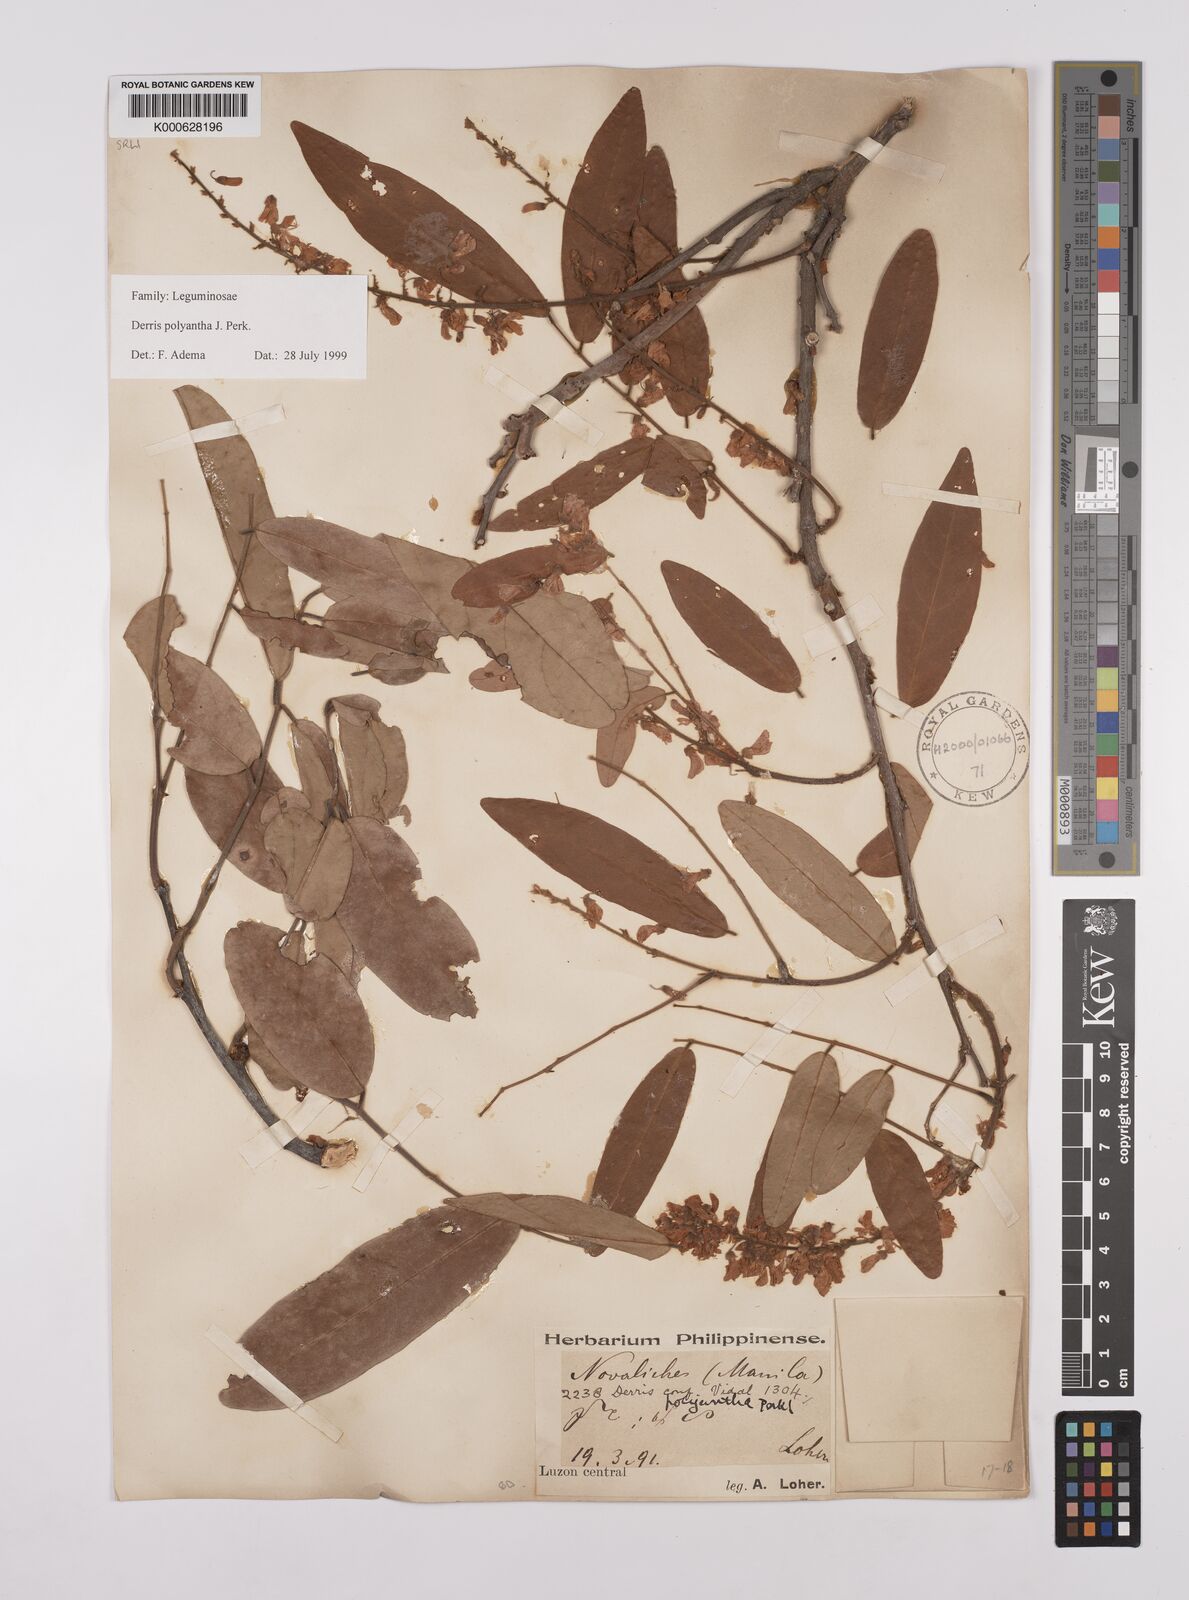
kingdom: Plantae
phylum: Tracheophyta
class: Magnoliopsida
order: Fabales
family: Fabaceae
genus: Derris
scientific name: Derris polyantha
